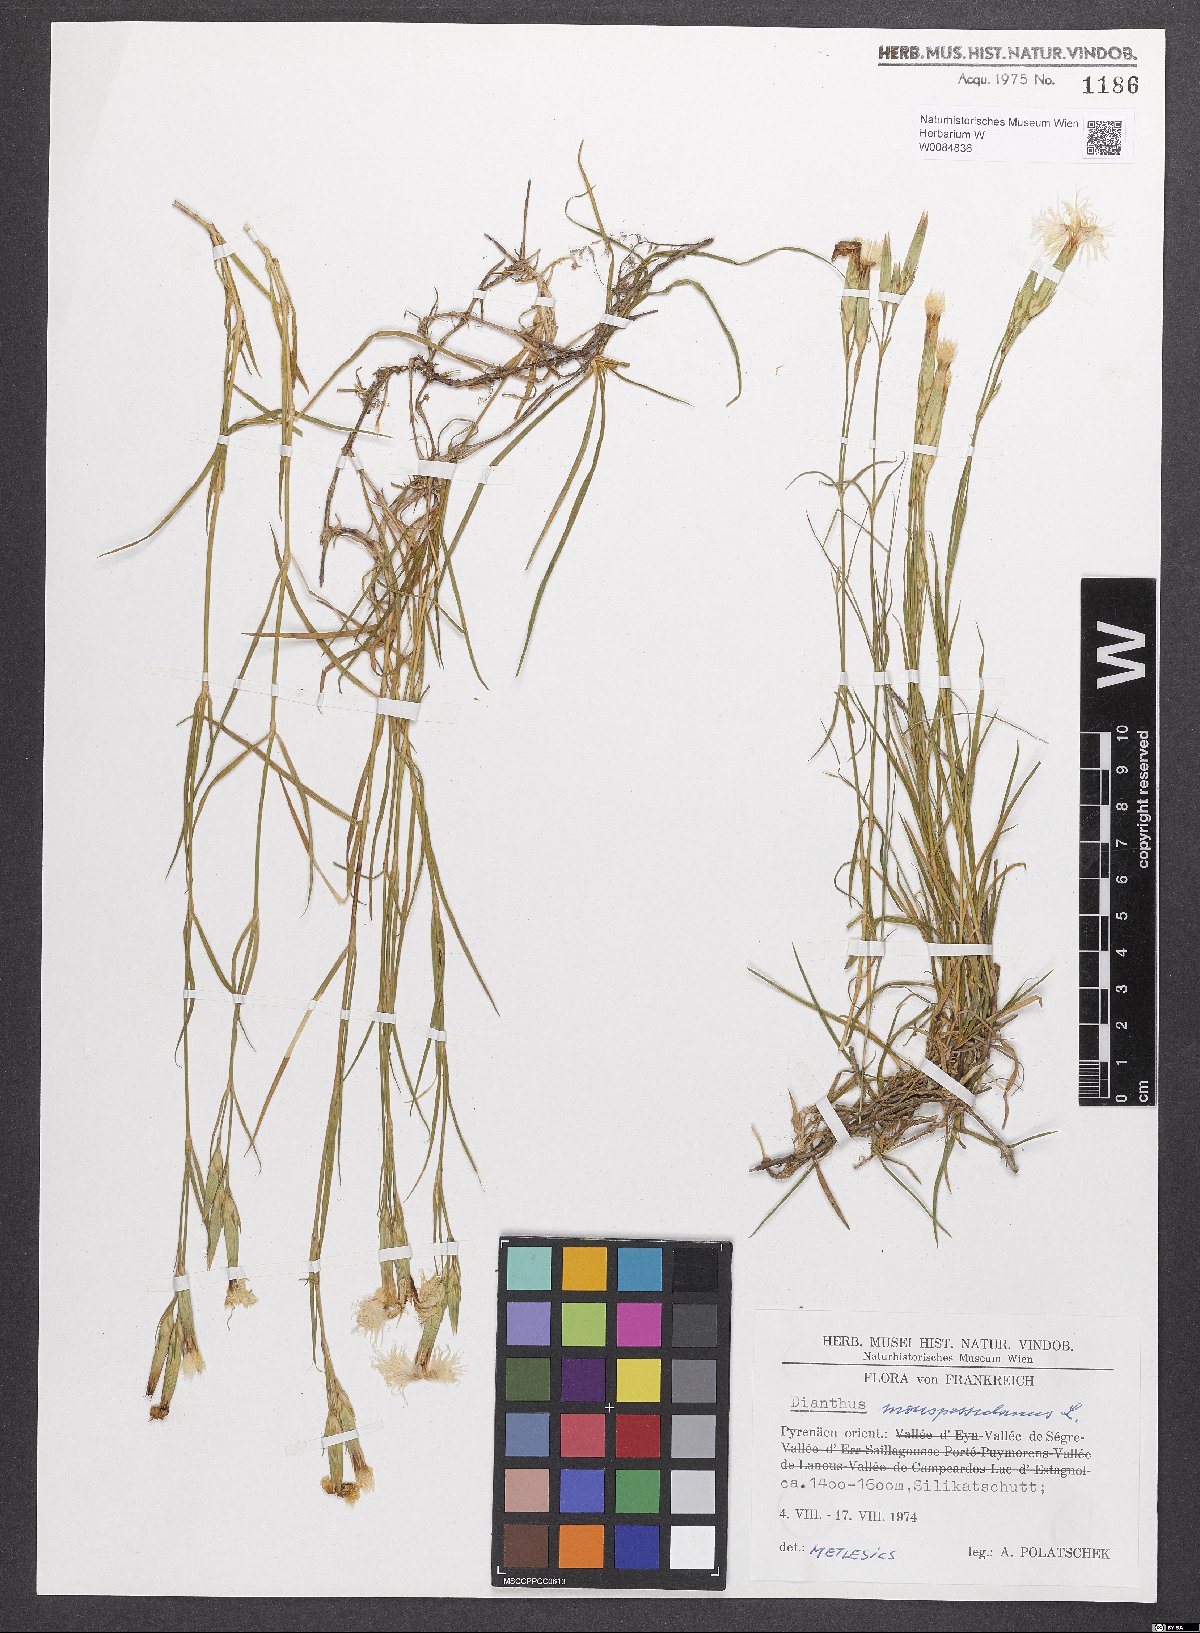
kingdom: Plantae
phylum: Tracheophyta
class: Magnoliopsida
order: Caryophyllales
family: Caryophyllaceae
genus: Dianthus
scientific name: Dianthus hyssopifolius
